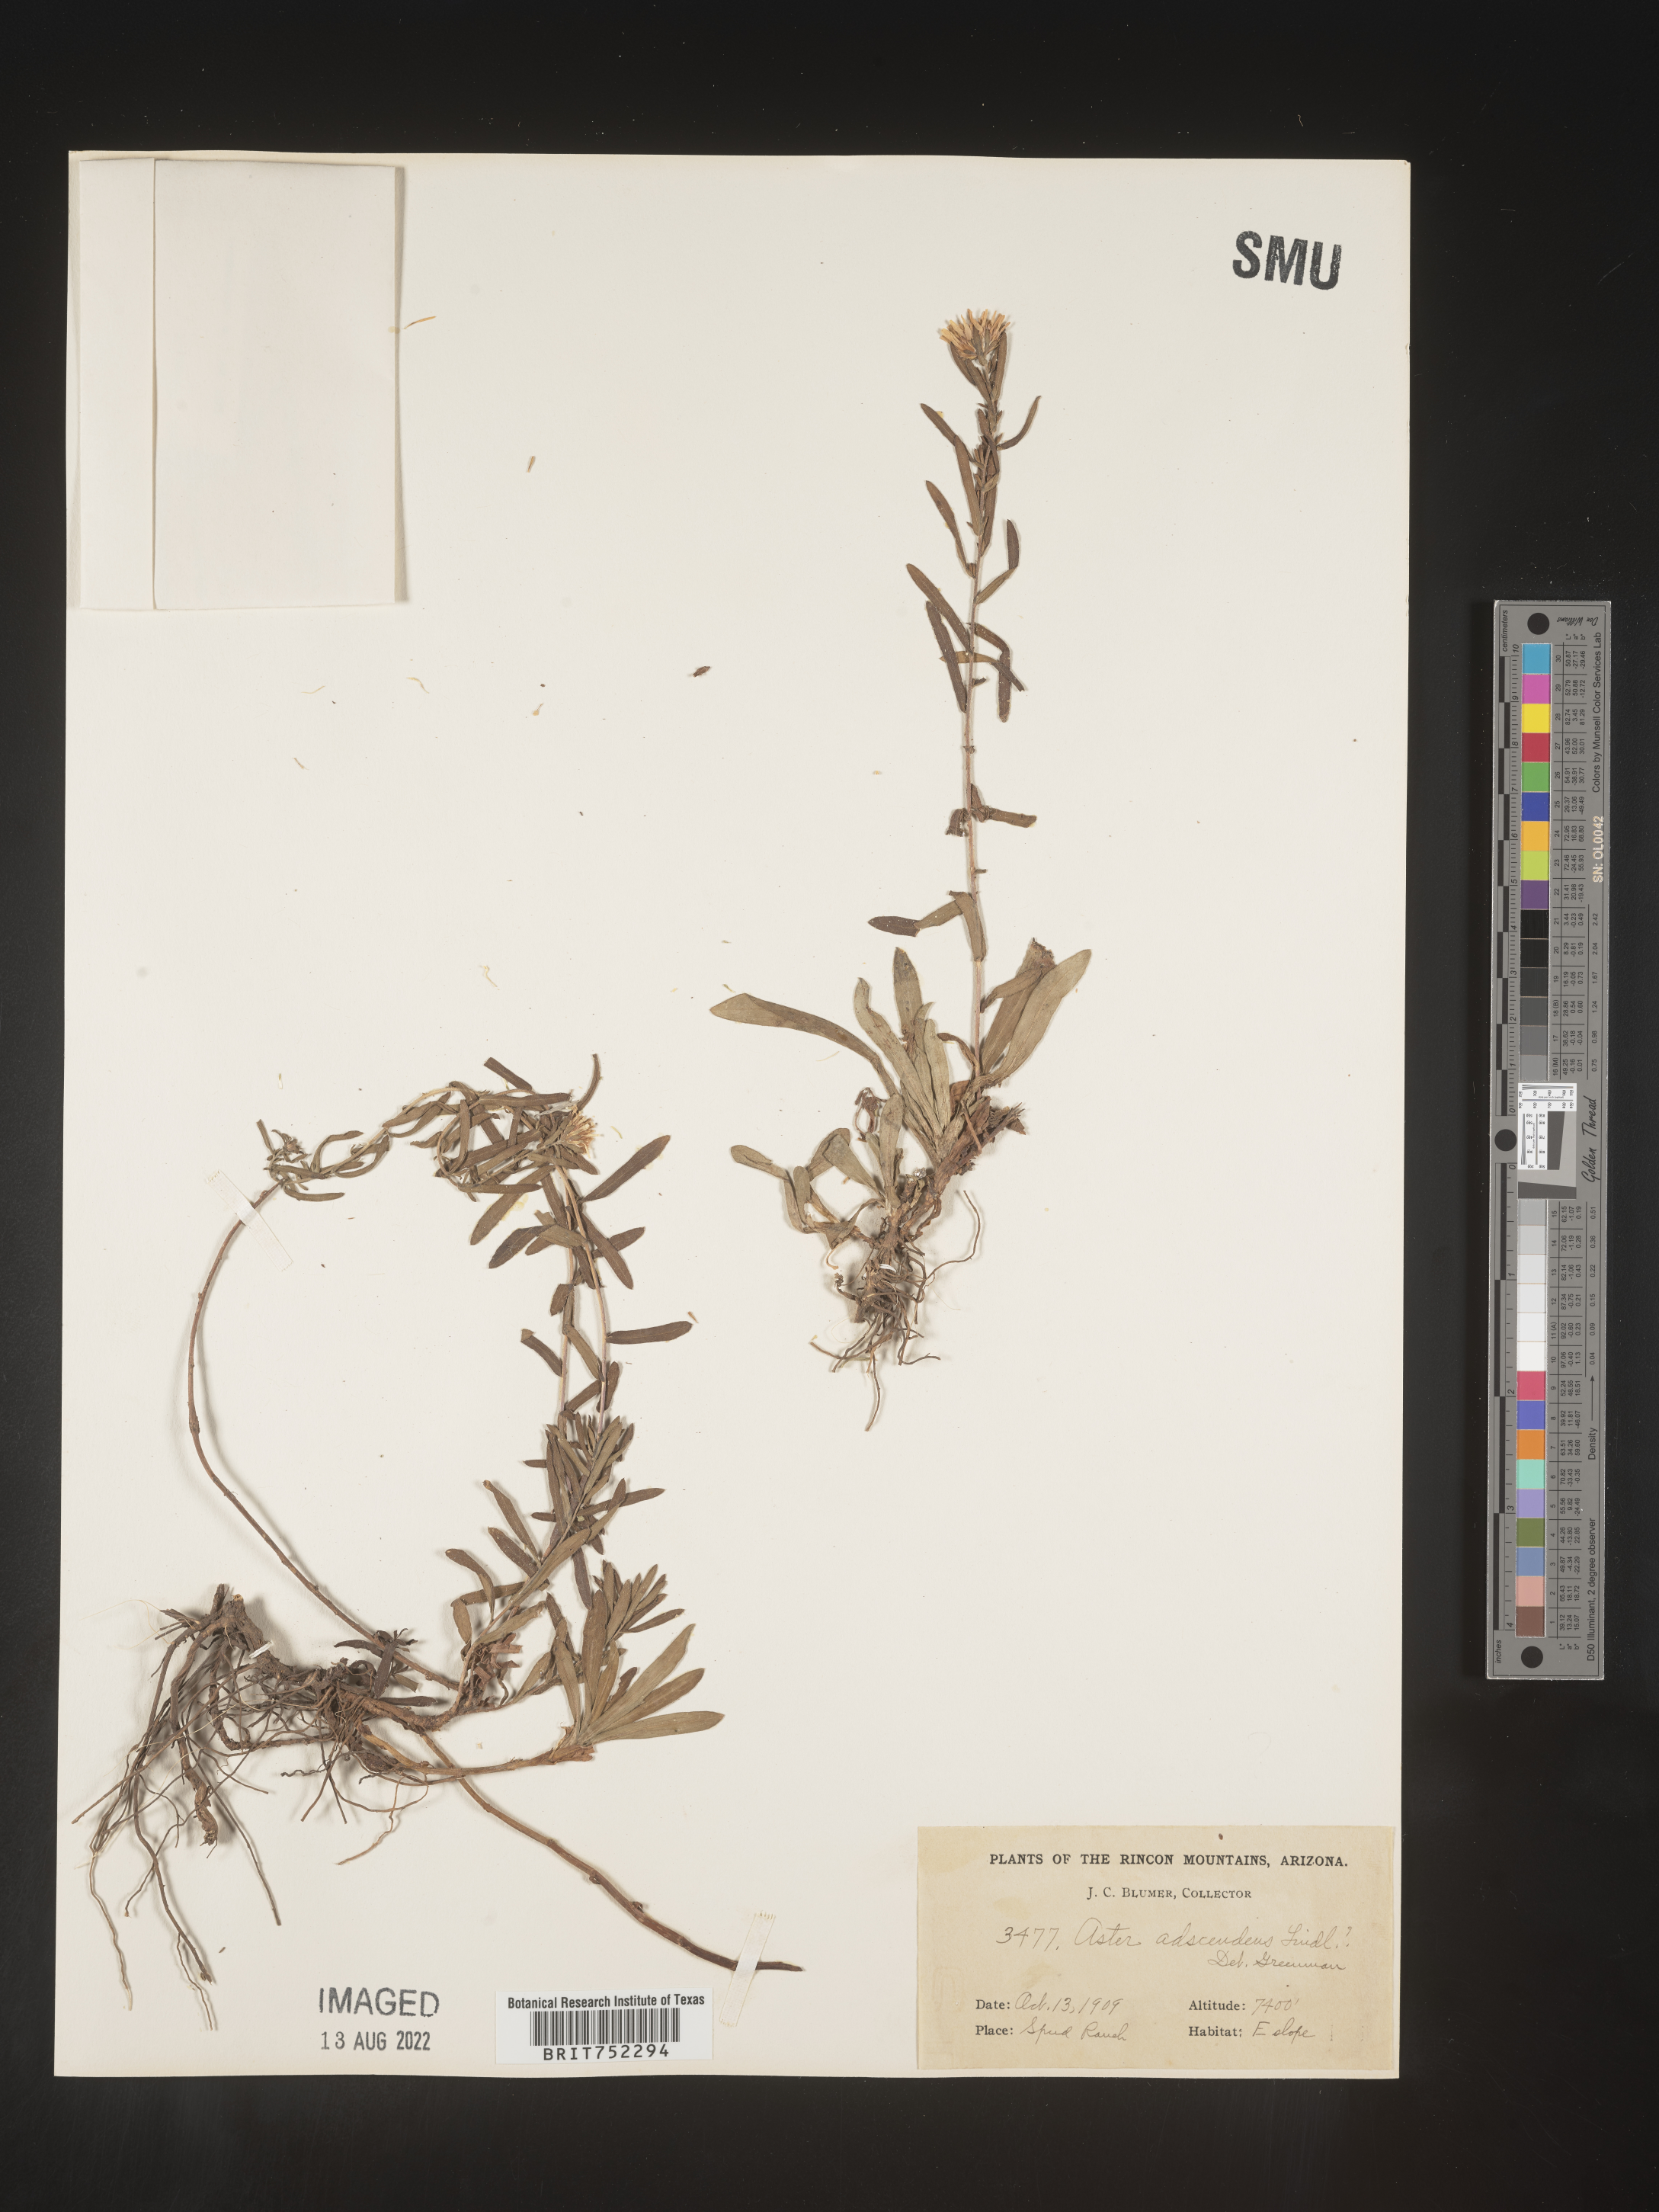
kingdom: Plantae
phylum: Tracheophyta
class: Magnoliopsida
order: Asterales
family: Asteraceae
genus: Symphyotrichum
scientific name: Symphyotrichum falcatum
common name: Creeping white prairie aster
